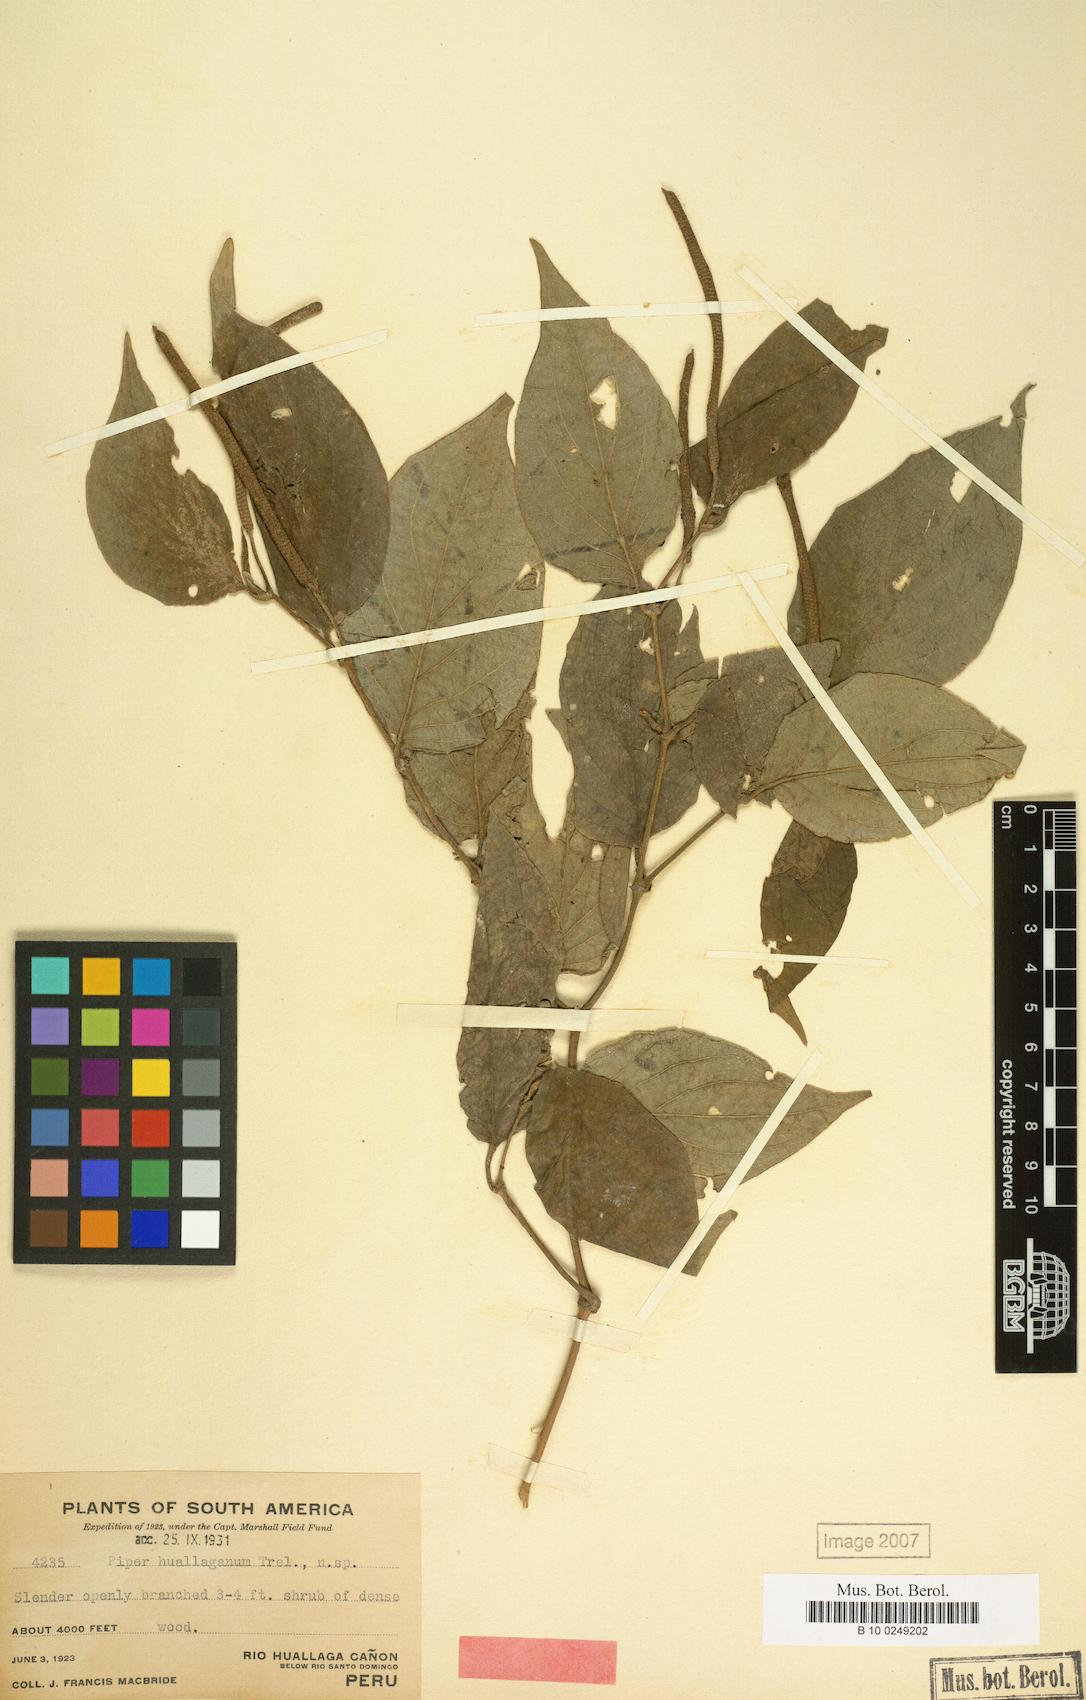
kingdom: Plantae
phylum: Tracheophyta
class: Magnoliopsida
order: Piperales
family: Piperaceae
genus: Piper
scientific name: Piper huallaganum
